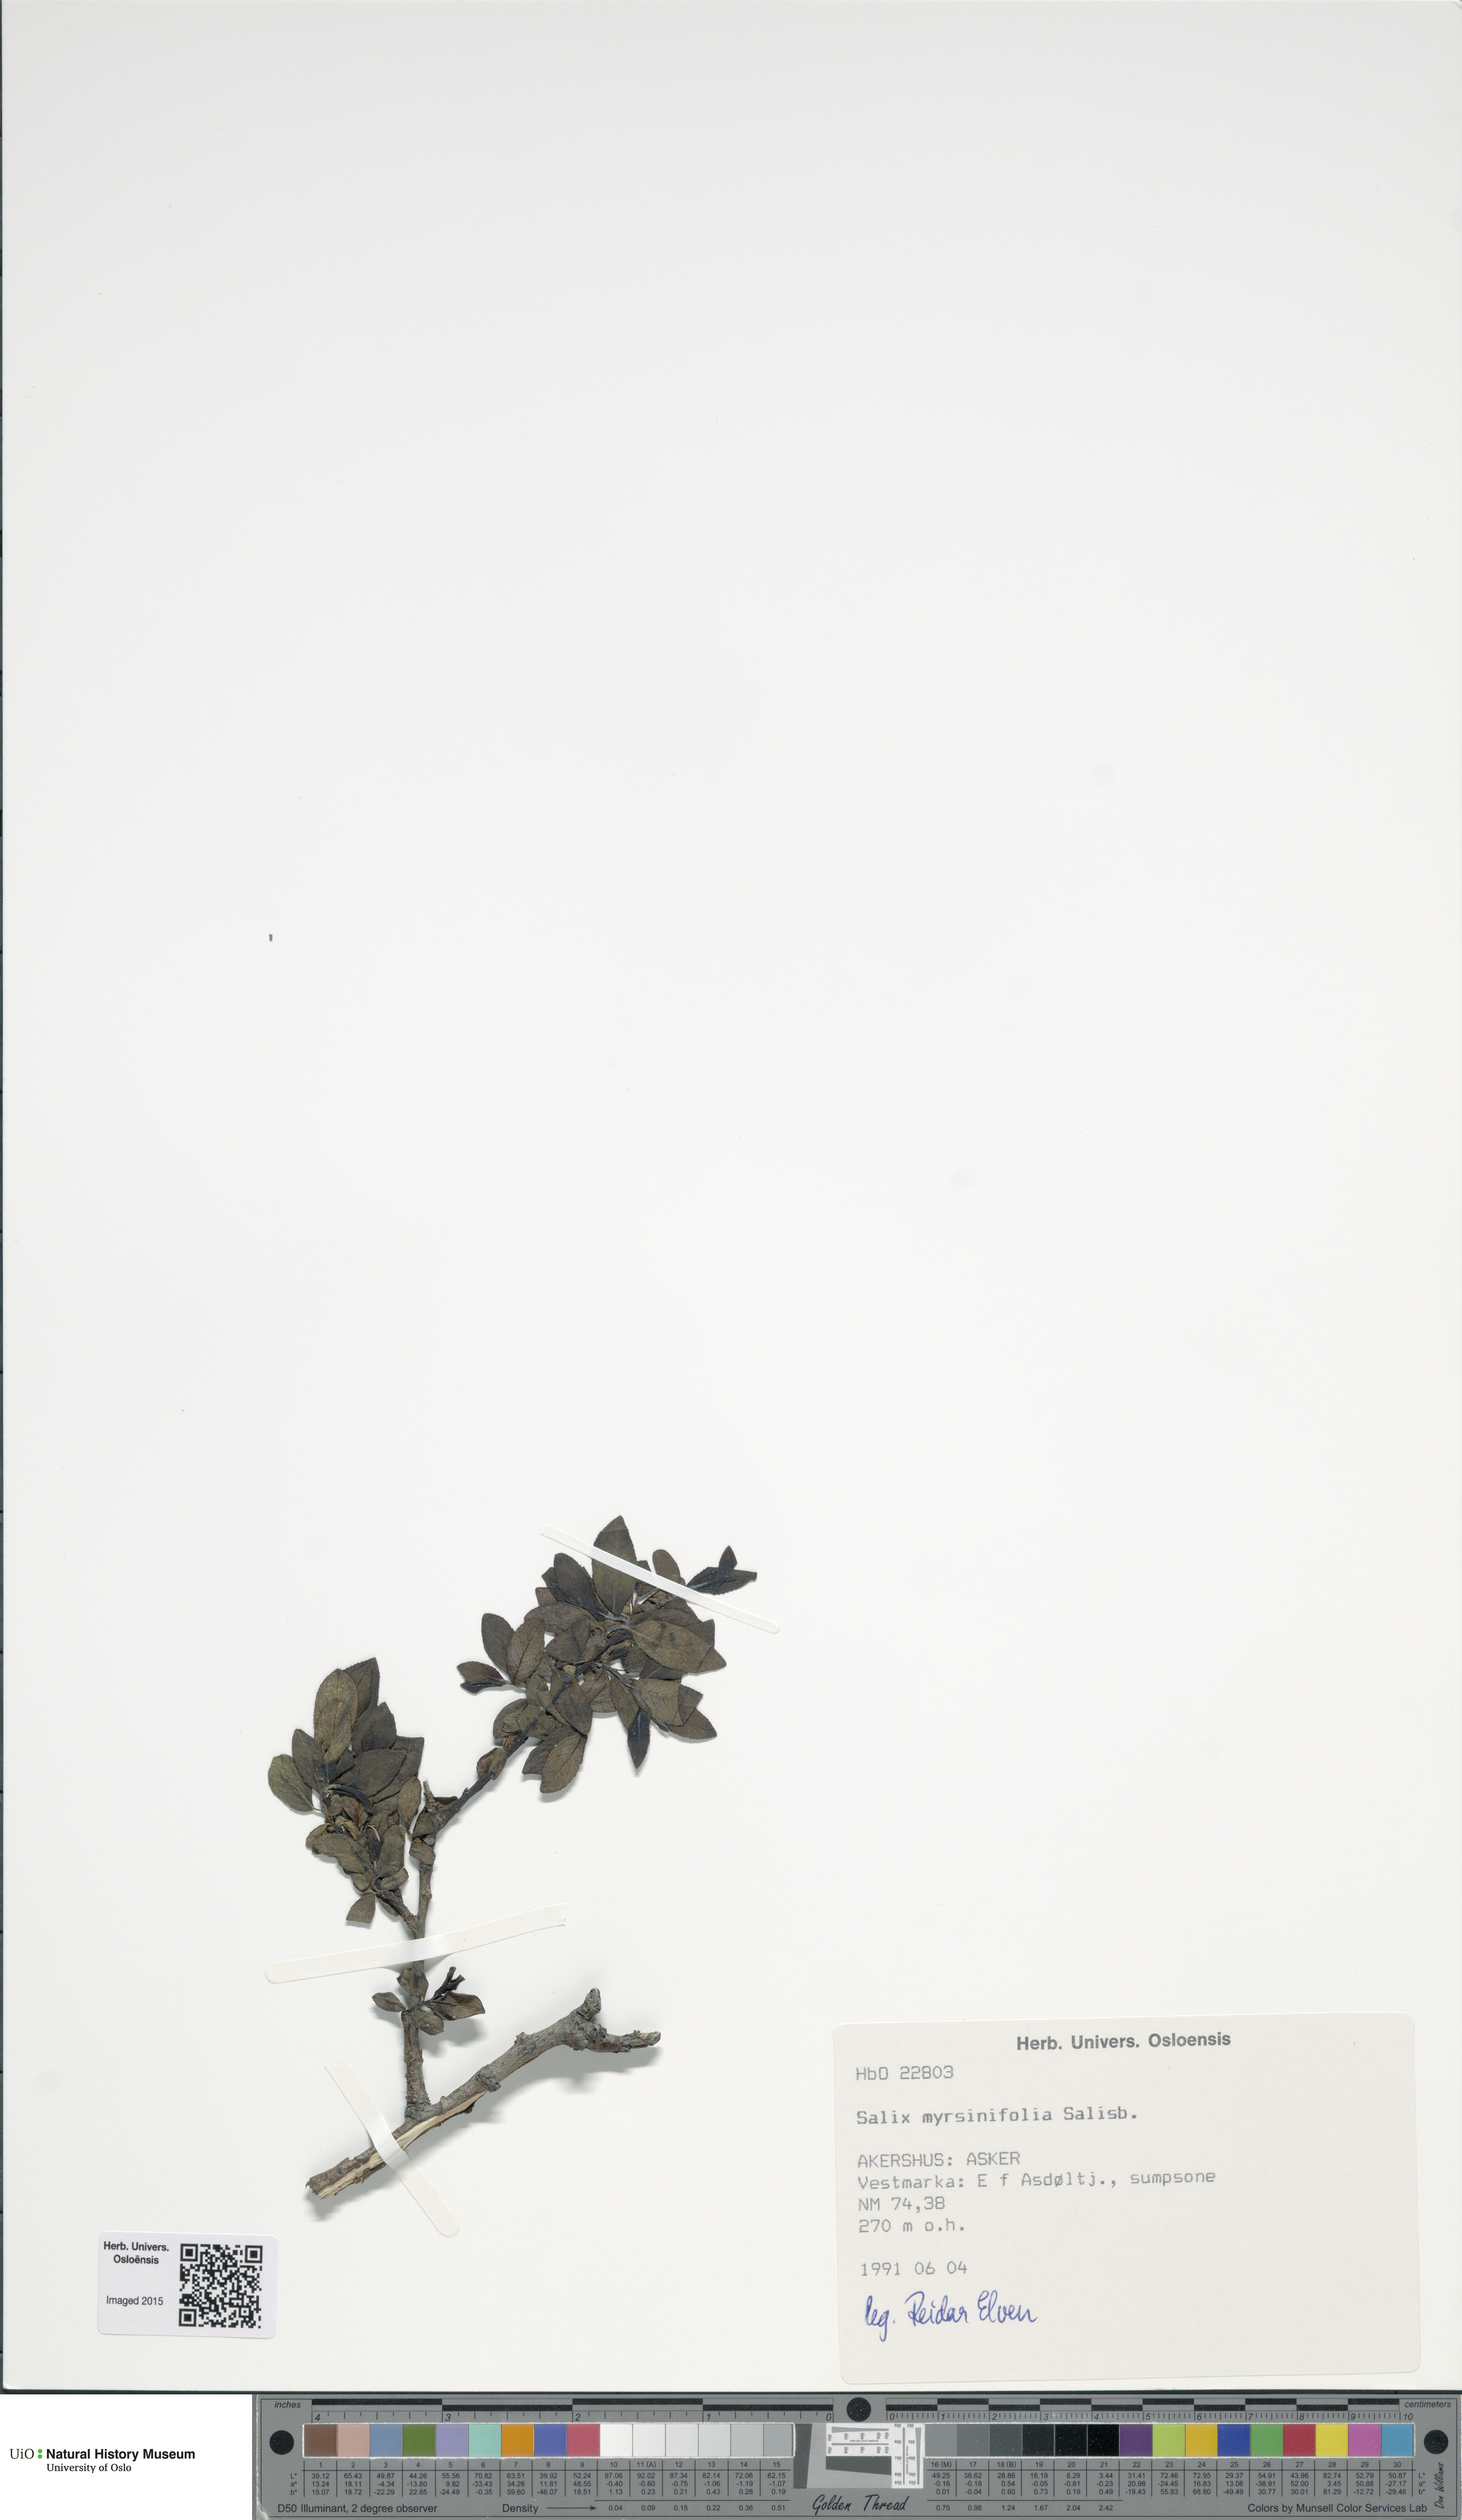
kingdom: Plantae
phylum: Tracheophyta
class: Magnoliopsida
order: Malpighiales
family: Salicaceae
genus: Salix
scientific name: Salix myrsinifolia
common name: Dark-leaved willow
